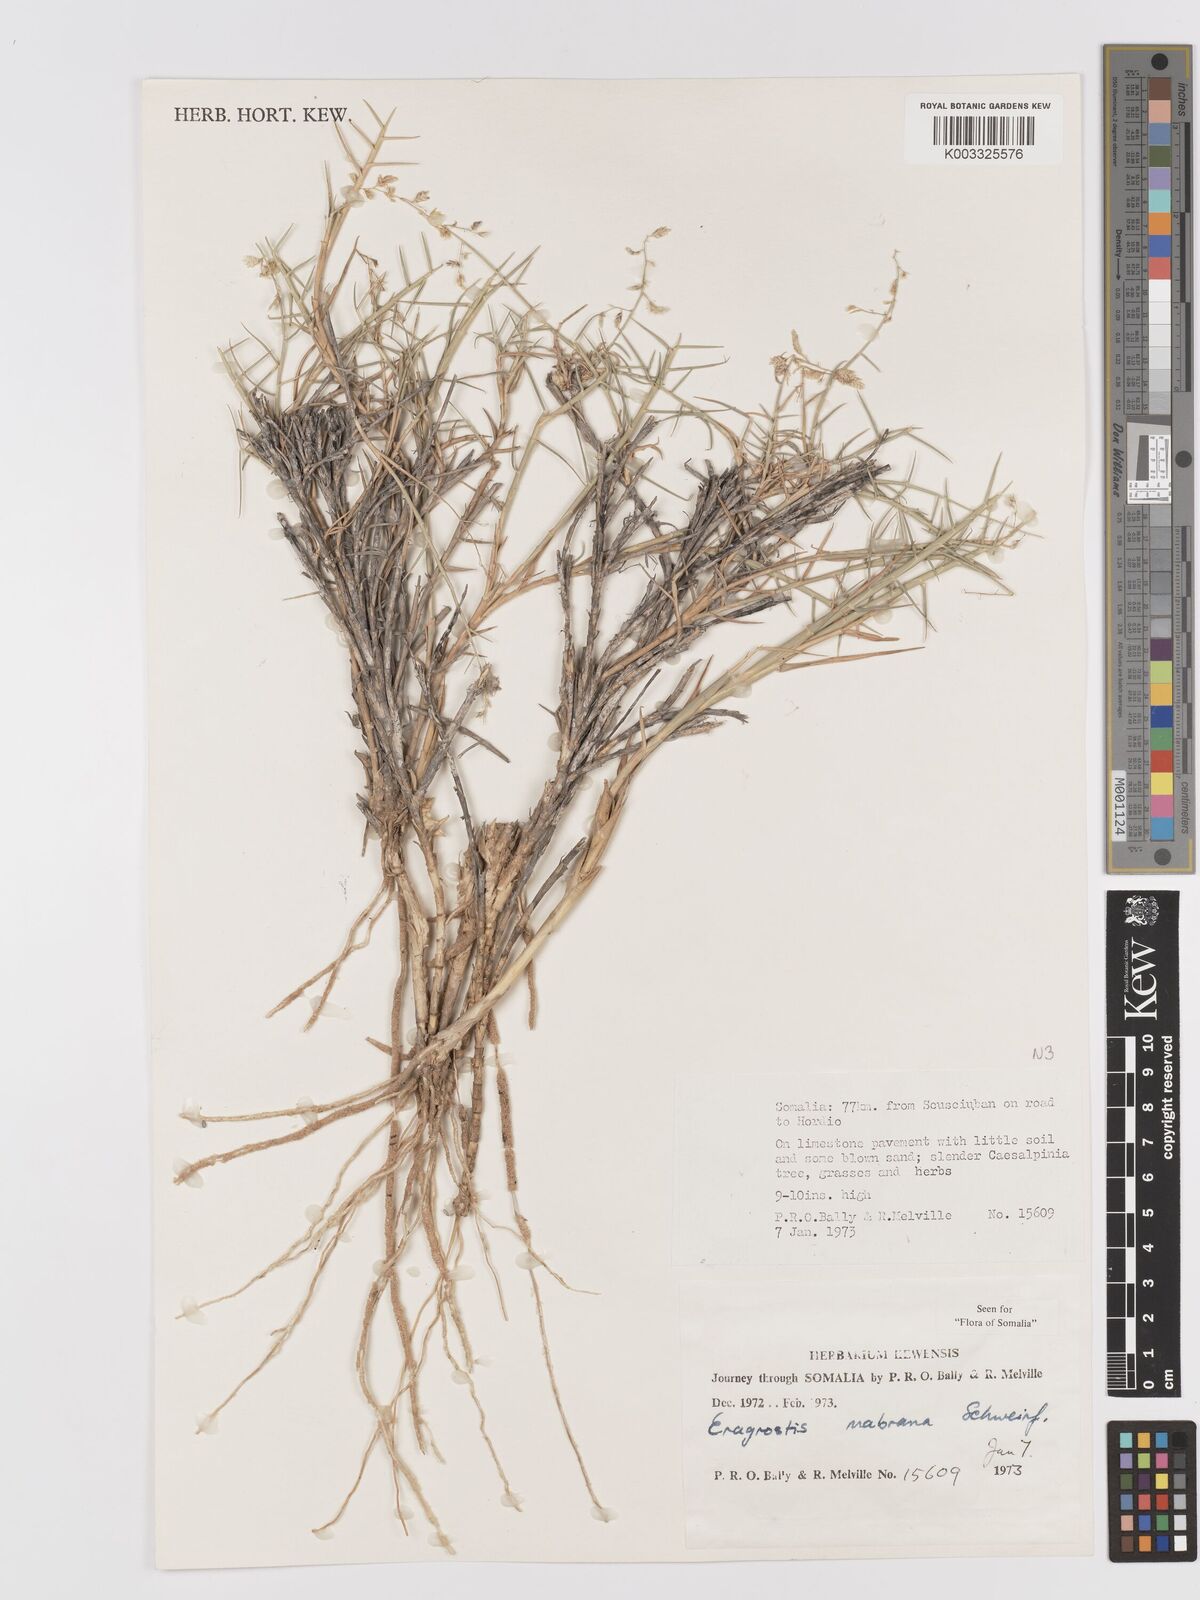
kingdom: Plantae
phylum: Tracheophyta
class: Liliopsida
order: Poales
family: Poaceae
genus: Eragrostis
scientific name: Eragrostis mahrana
